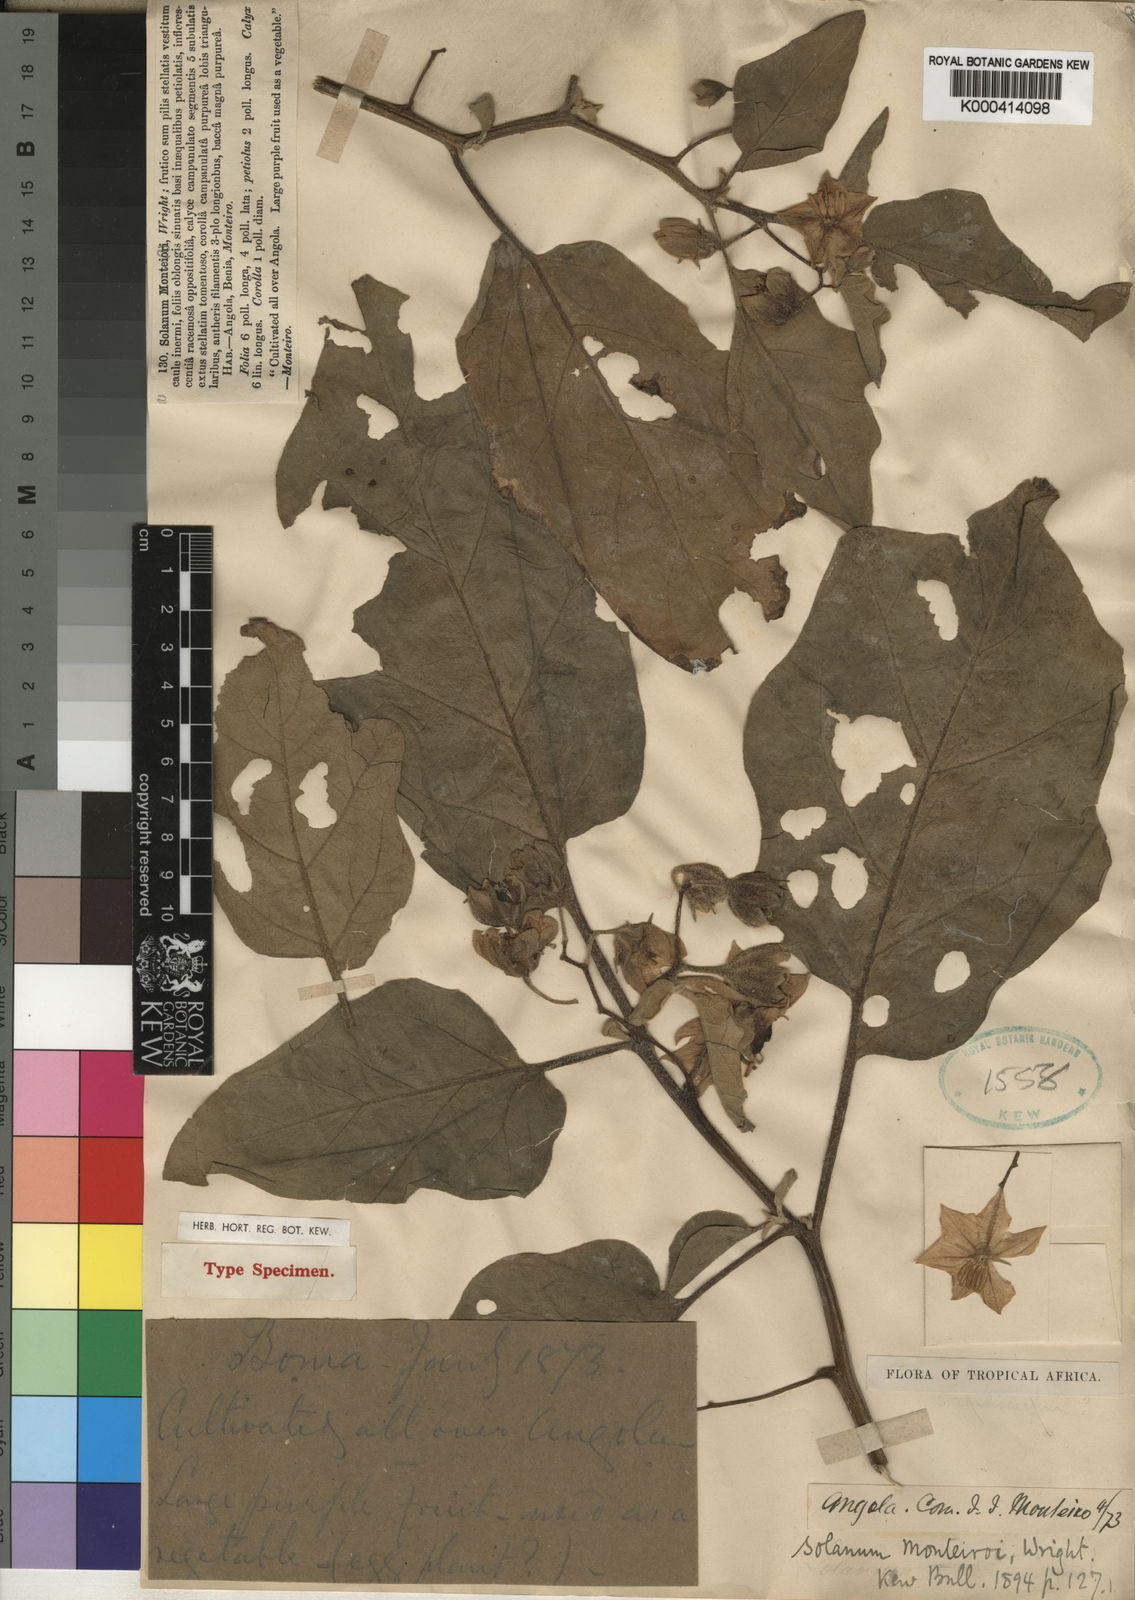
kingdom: Plantae
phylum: Tracheophyta
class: Magnoliopsida
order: Solanales
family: Solanaceae
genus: Solanum
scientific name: Solanum aethiopicum
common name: Gilo
